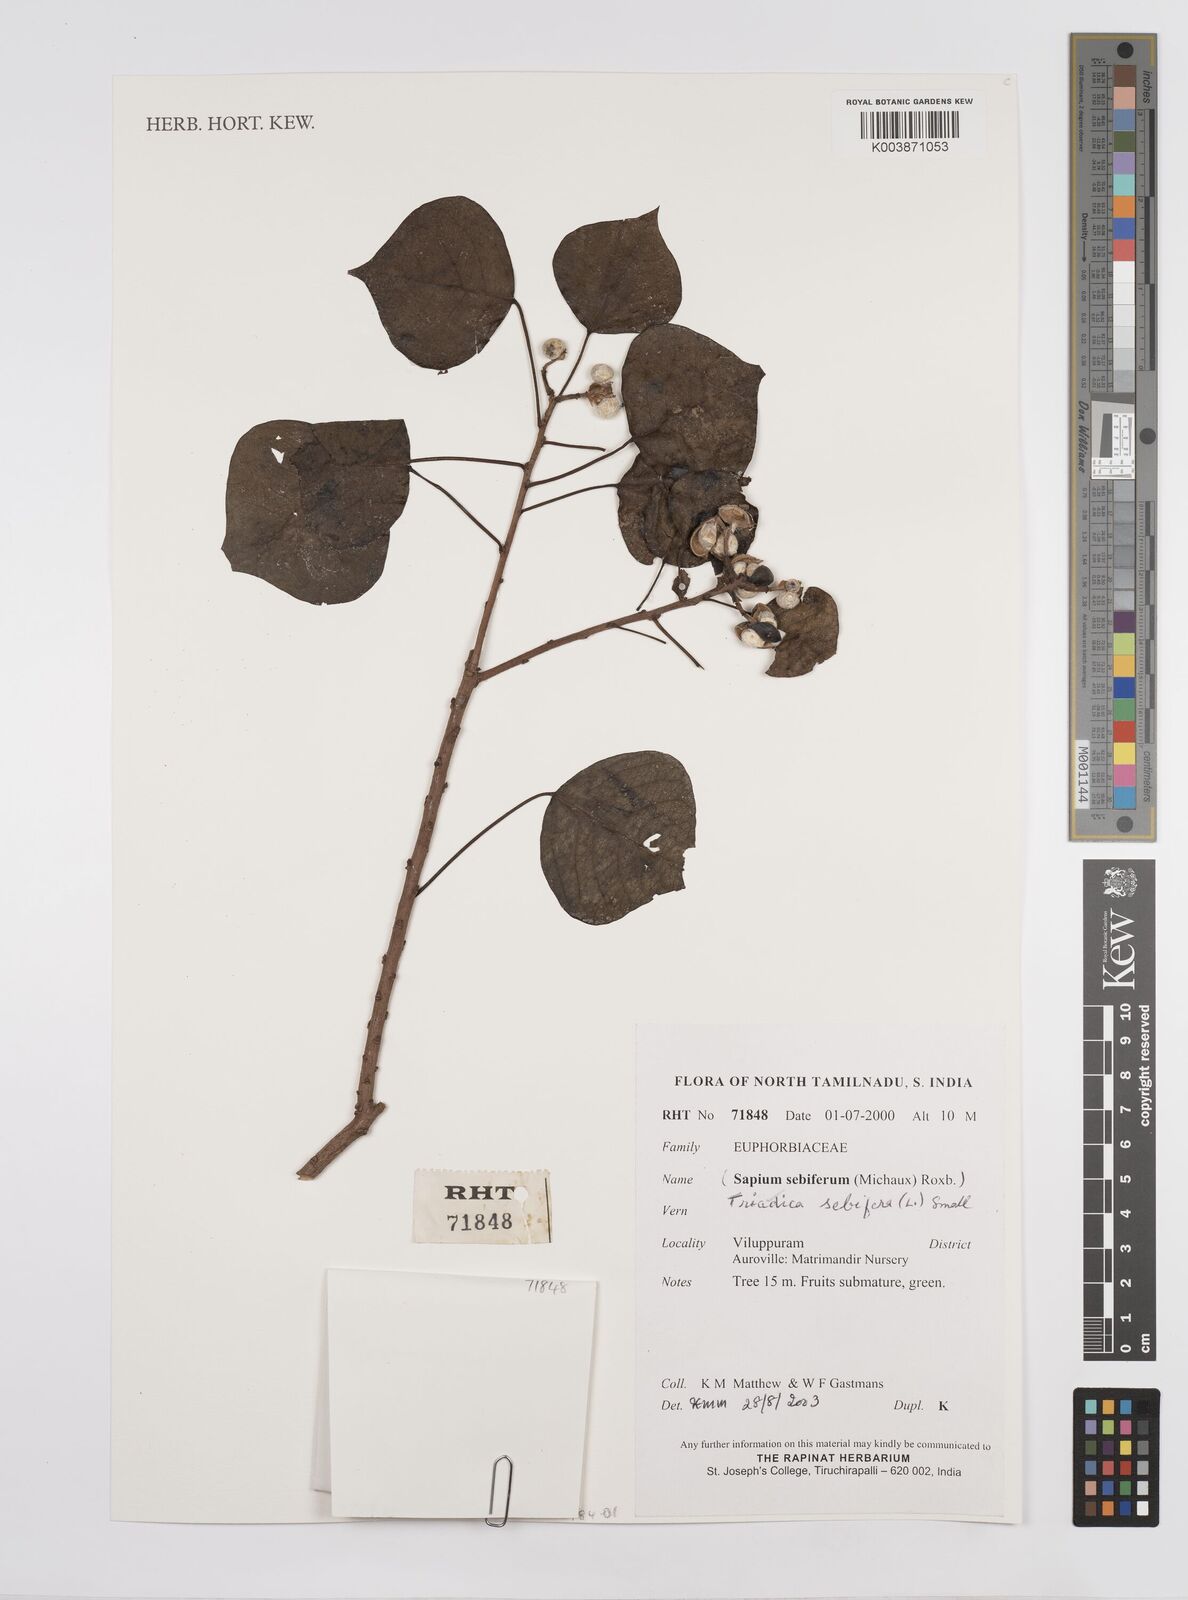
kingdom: Plantae
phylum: Tracheophyta
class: Magnoliopsida
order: Malpighiales
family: Euphorbiaceae
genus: Triadica
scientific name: Triadica sebifera
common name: Chinese tallow
